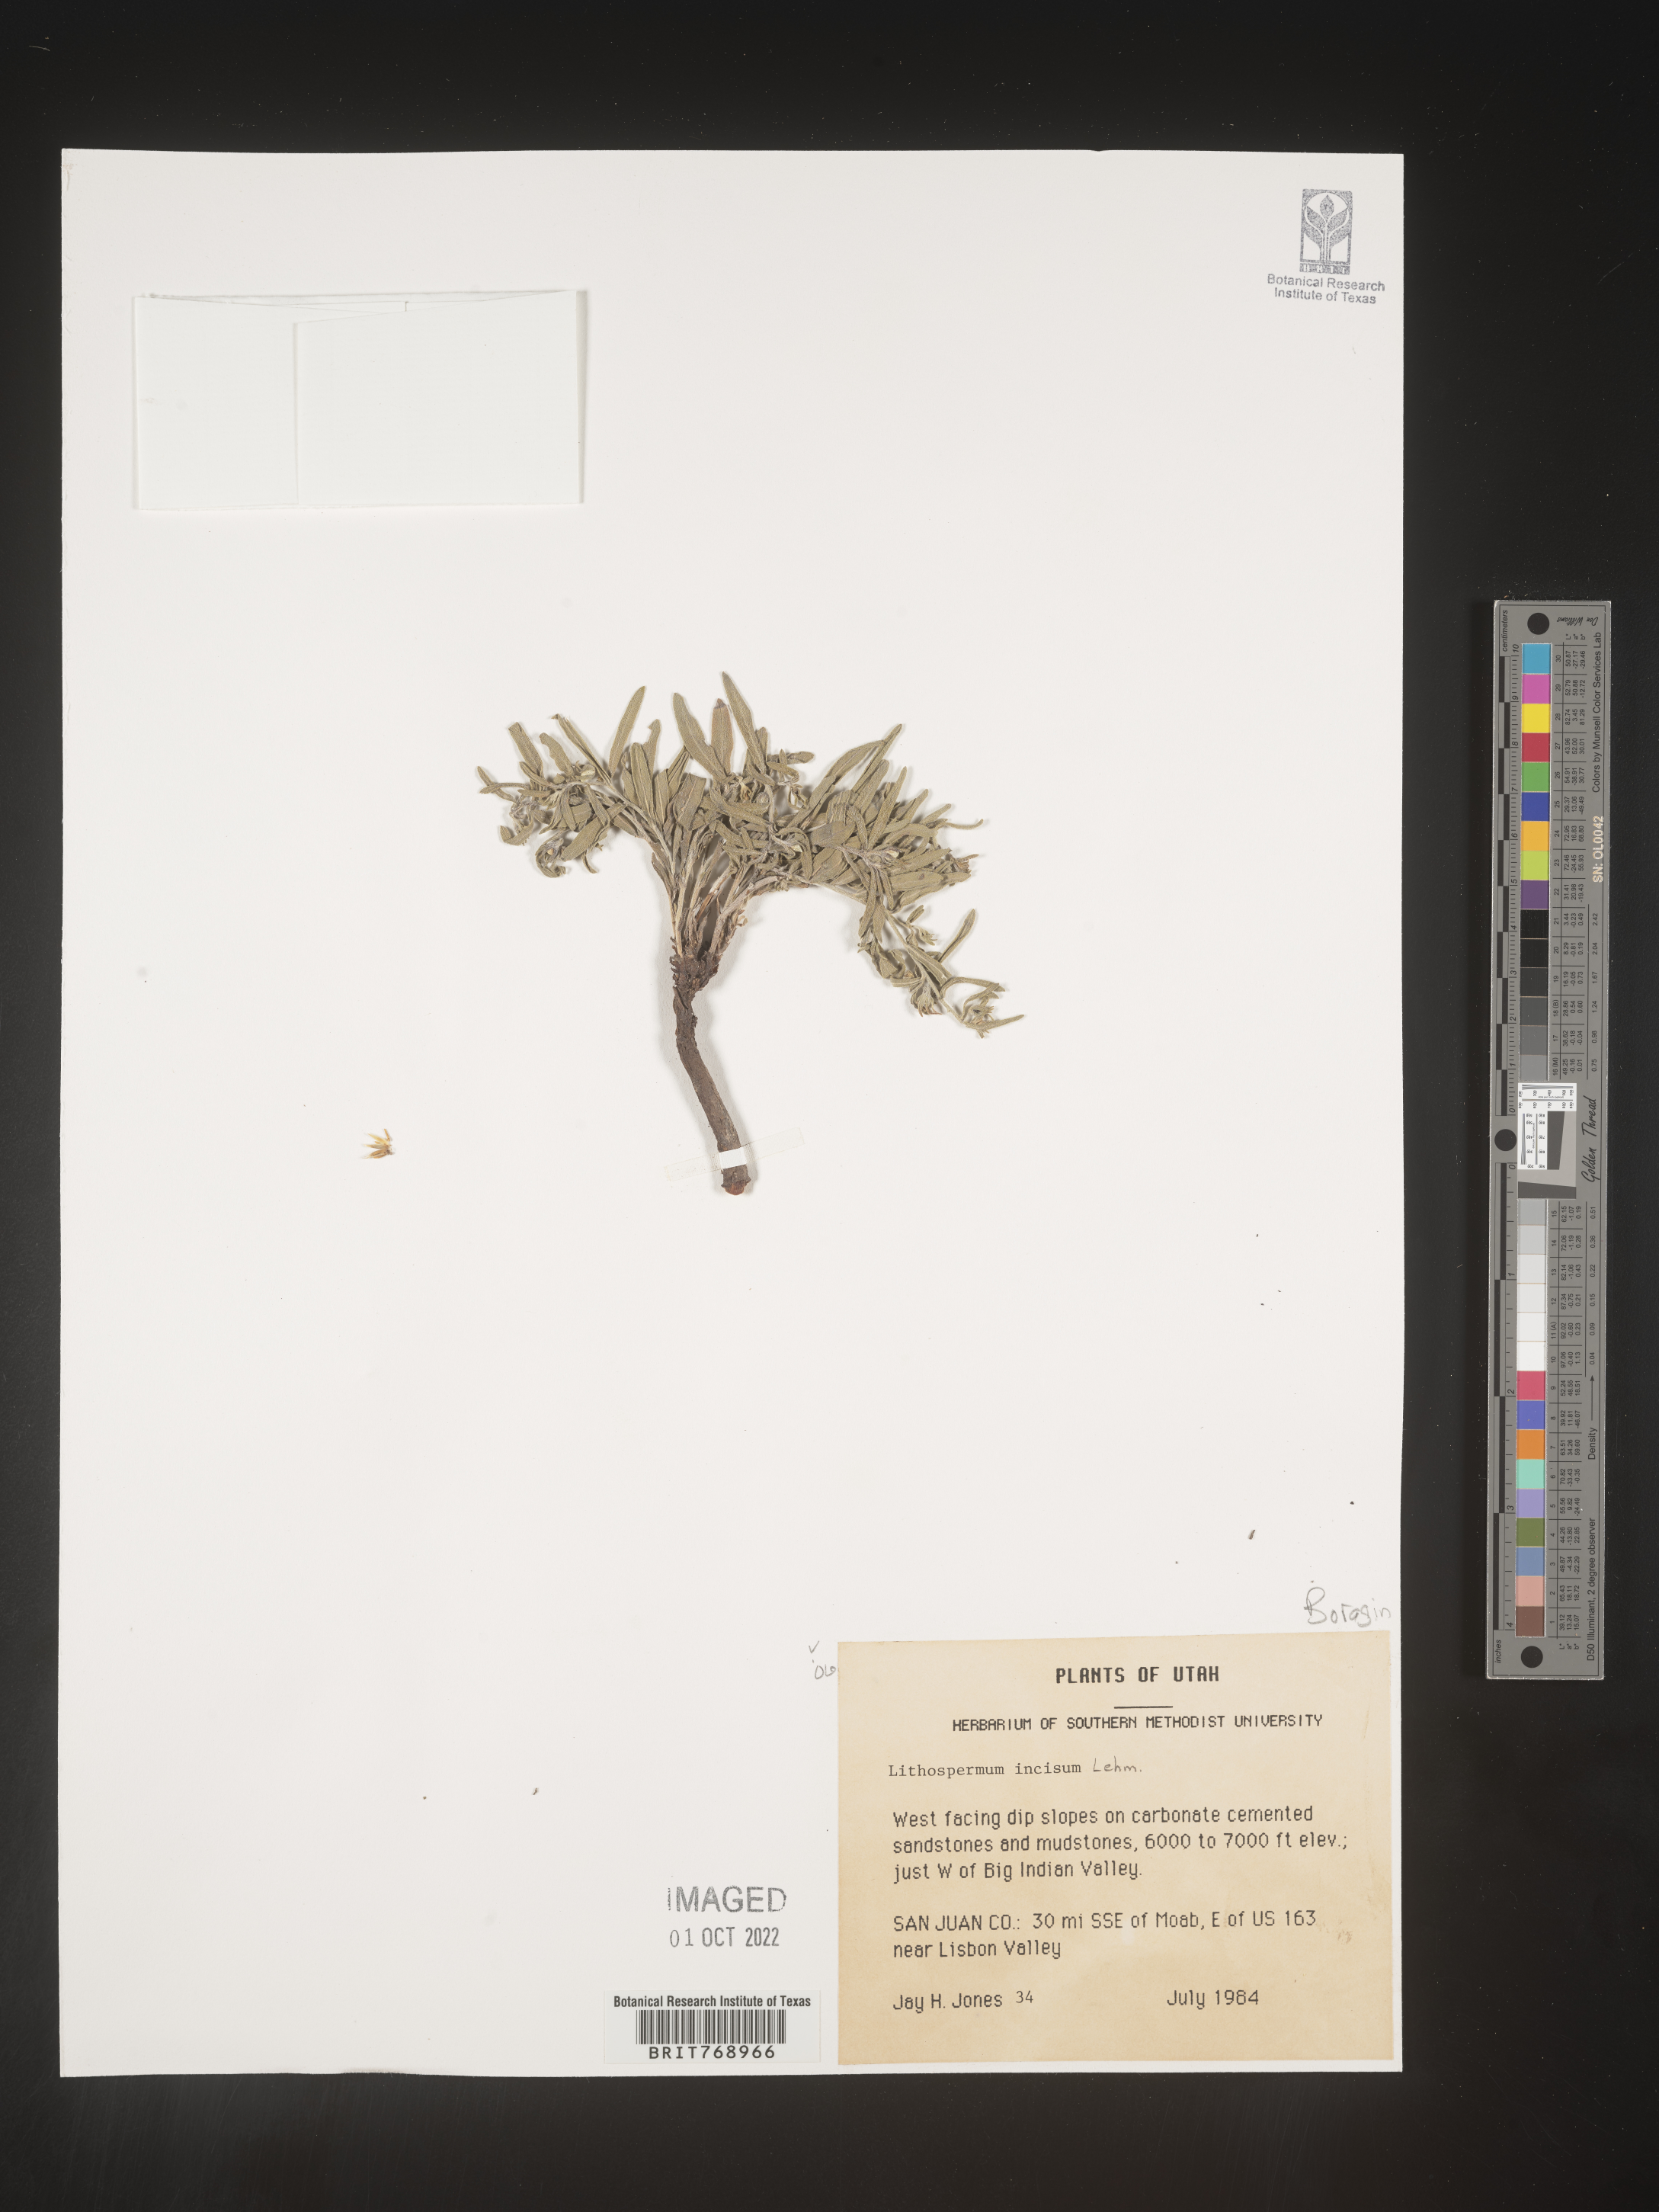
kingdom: Plantae
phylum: Tracheophyta
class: Magnoliopsida
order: Boraginales
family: Boraginaceae
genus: Lithospermum
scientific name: Lithospermum incisum
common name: Fringed gromwell
